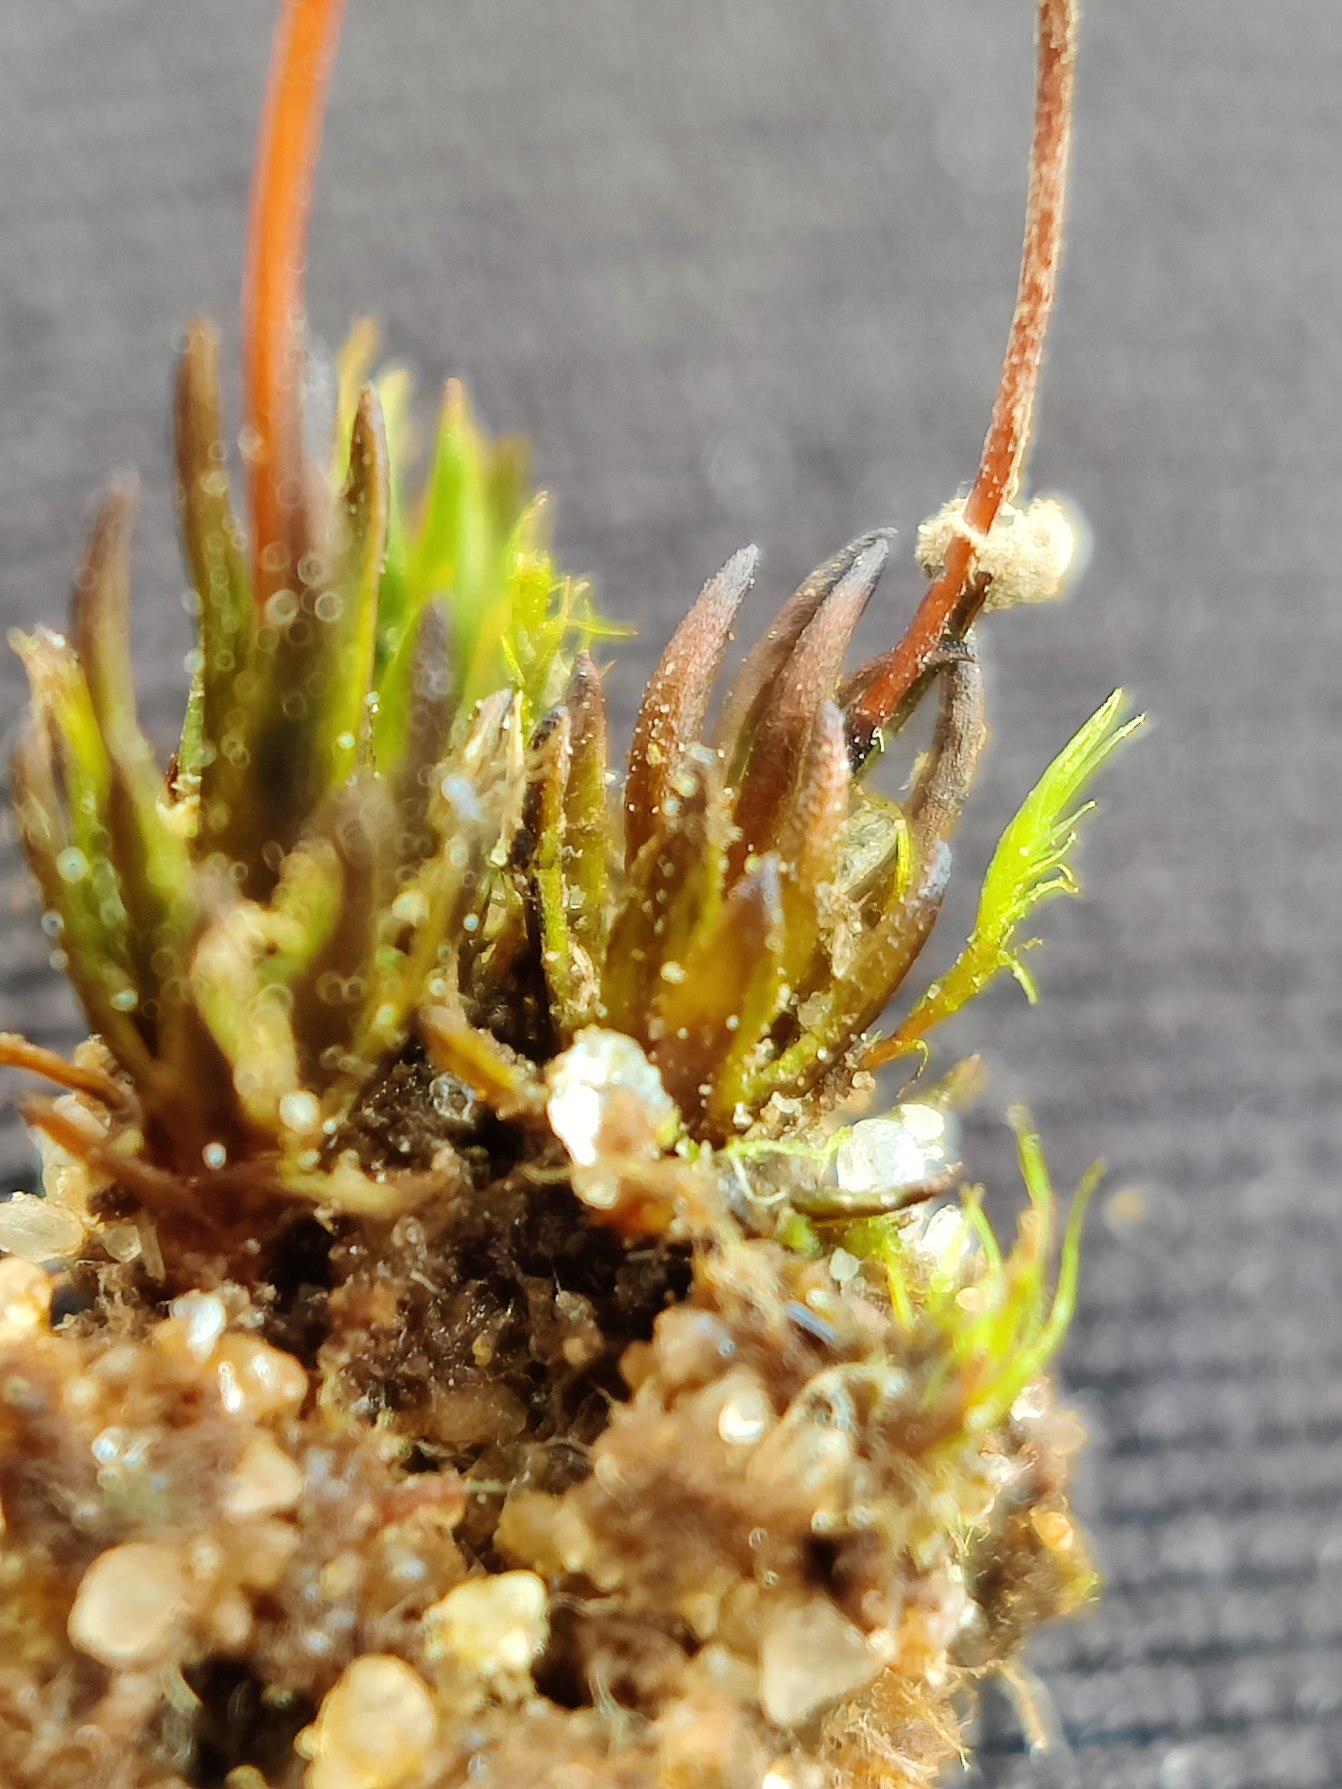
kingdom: Plantae
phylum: Bryophyta
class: Polytrichopsida
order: Polytrichales
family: Polytrichaceae
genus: Pogonatum
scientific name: Pogonatum nanum
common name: Dværg-urnekapsel
